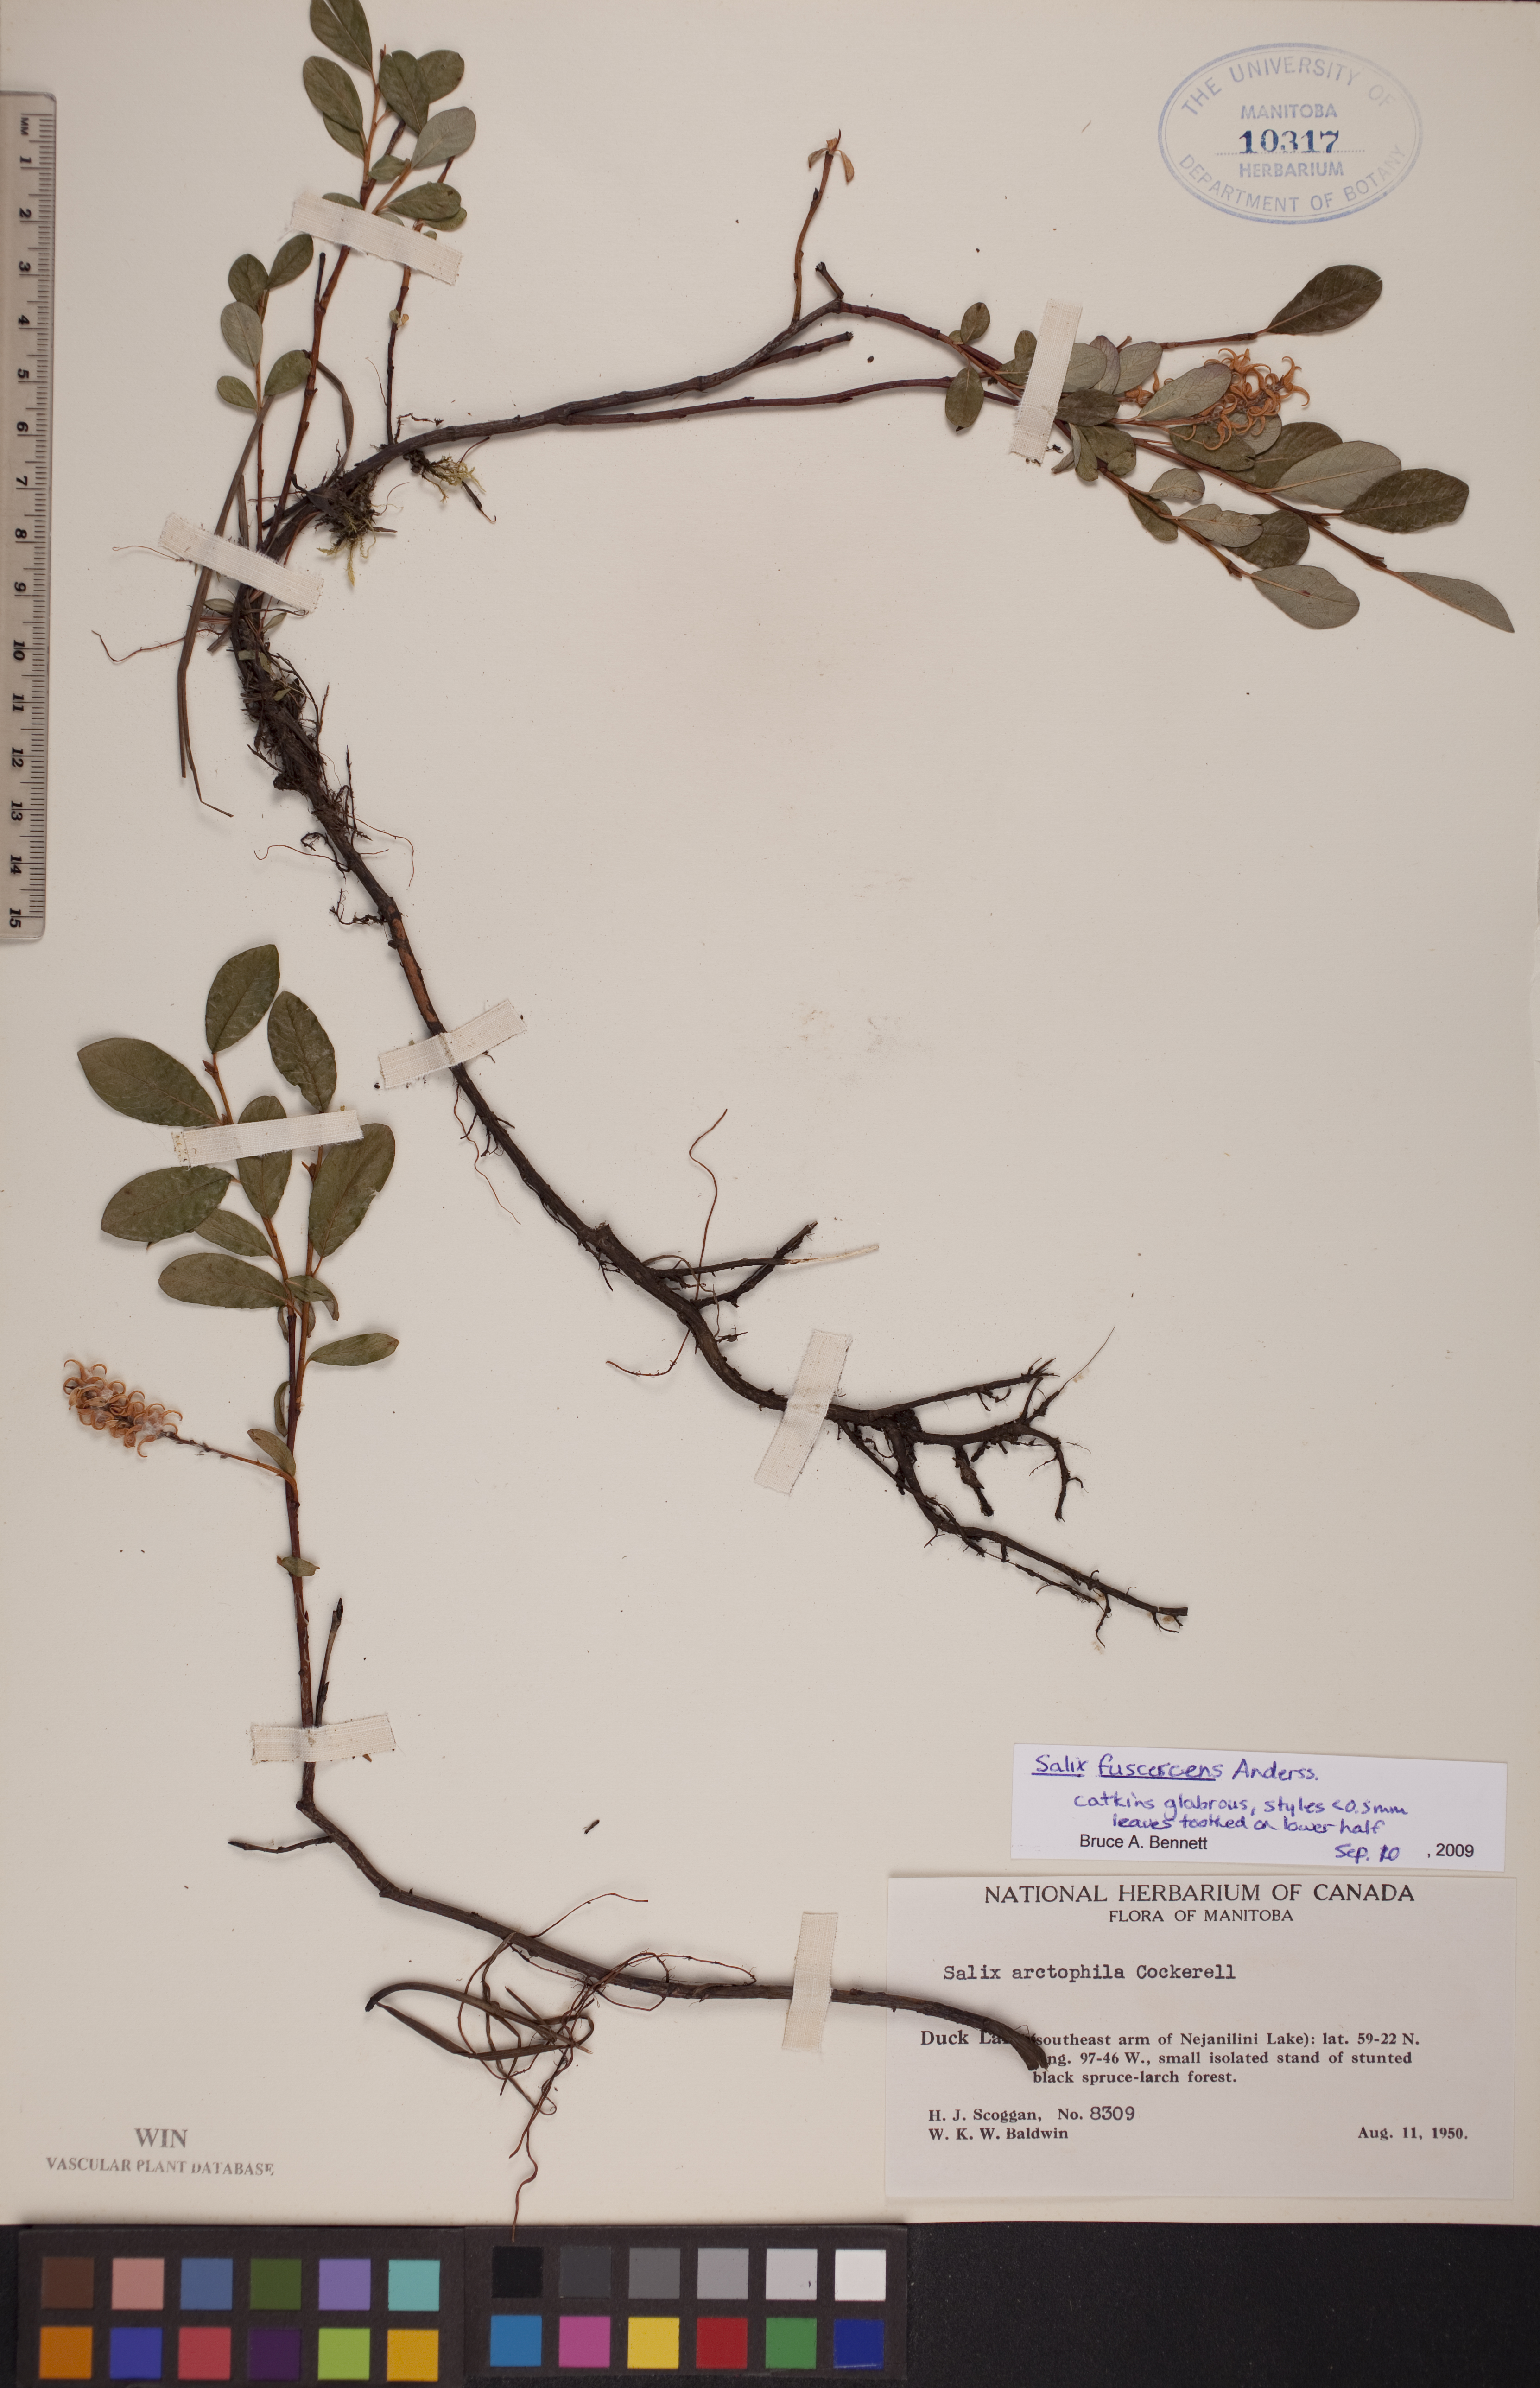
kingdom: Plantae
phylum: Tracheophyta
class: Magnoliopsida
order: Malpighiales
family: Salicaceae
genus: Salix
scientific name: Salix fuscescens
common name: Brownish willow
